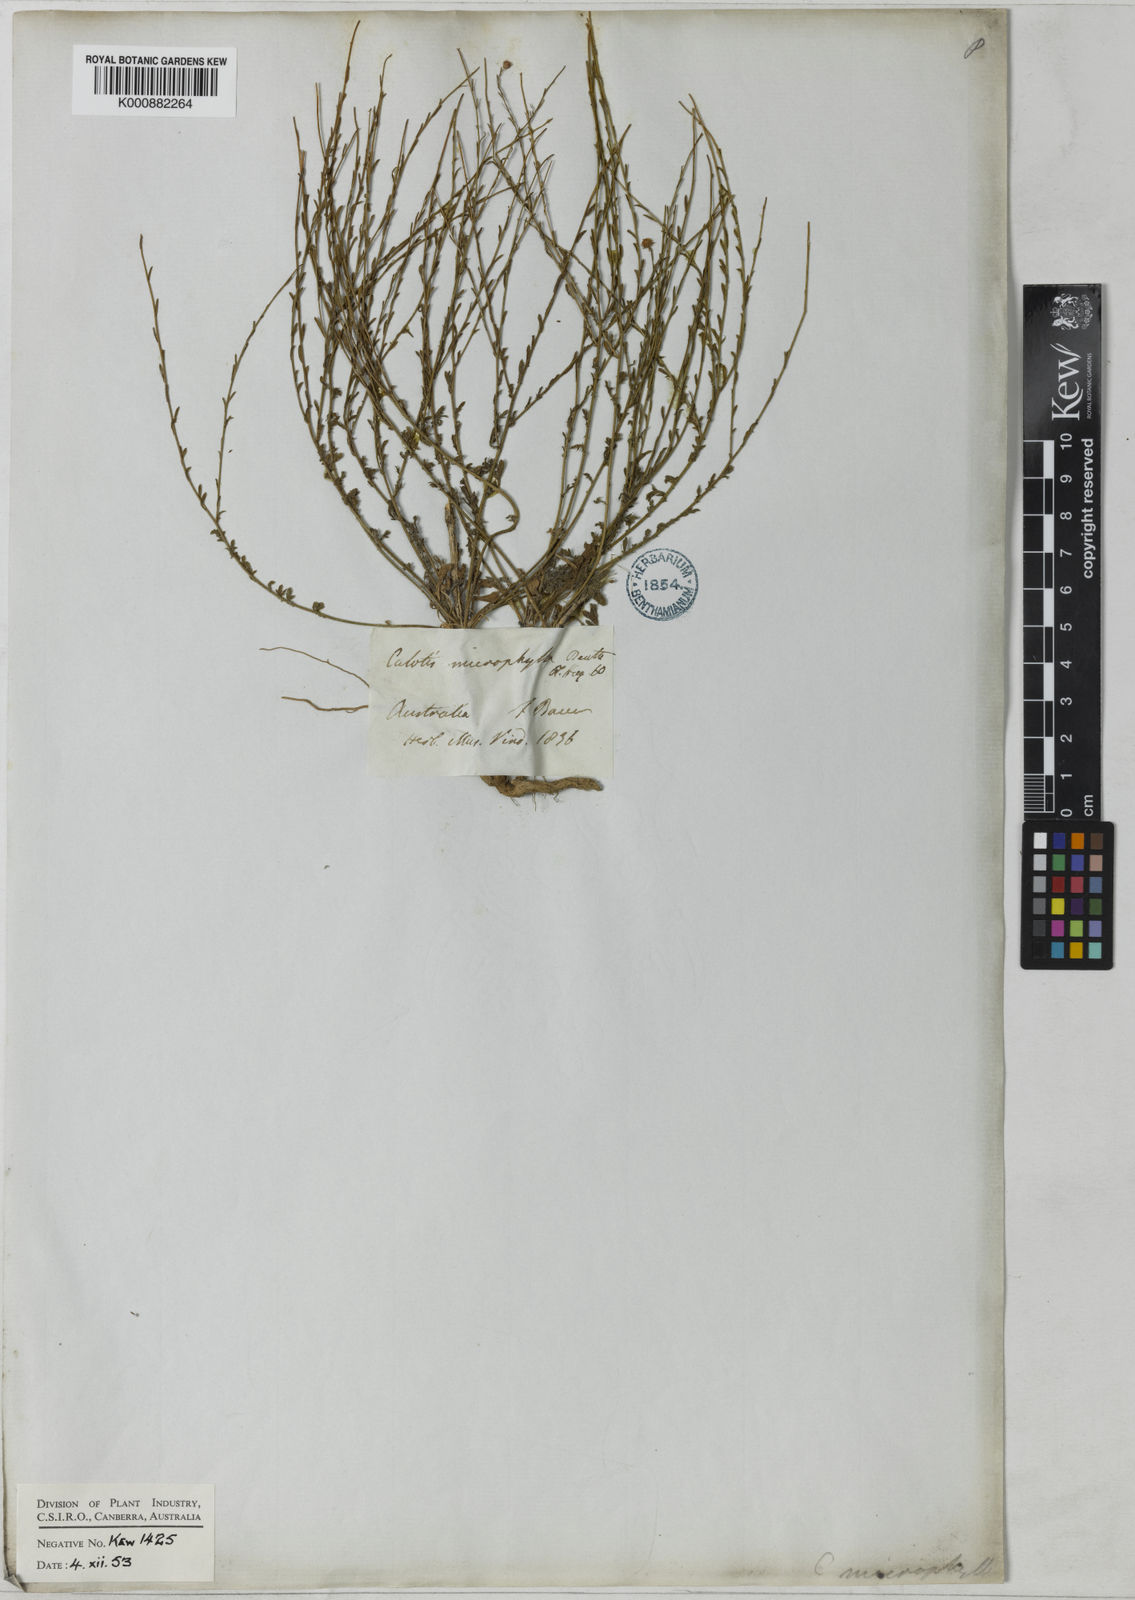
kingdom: Plantae
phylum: Tracheophyta
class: Magnoliopsida
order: Asterales
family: Asteraceae
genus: Calotis
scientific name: Calotis lappulacea
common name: Bur daisy
